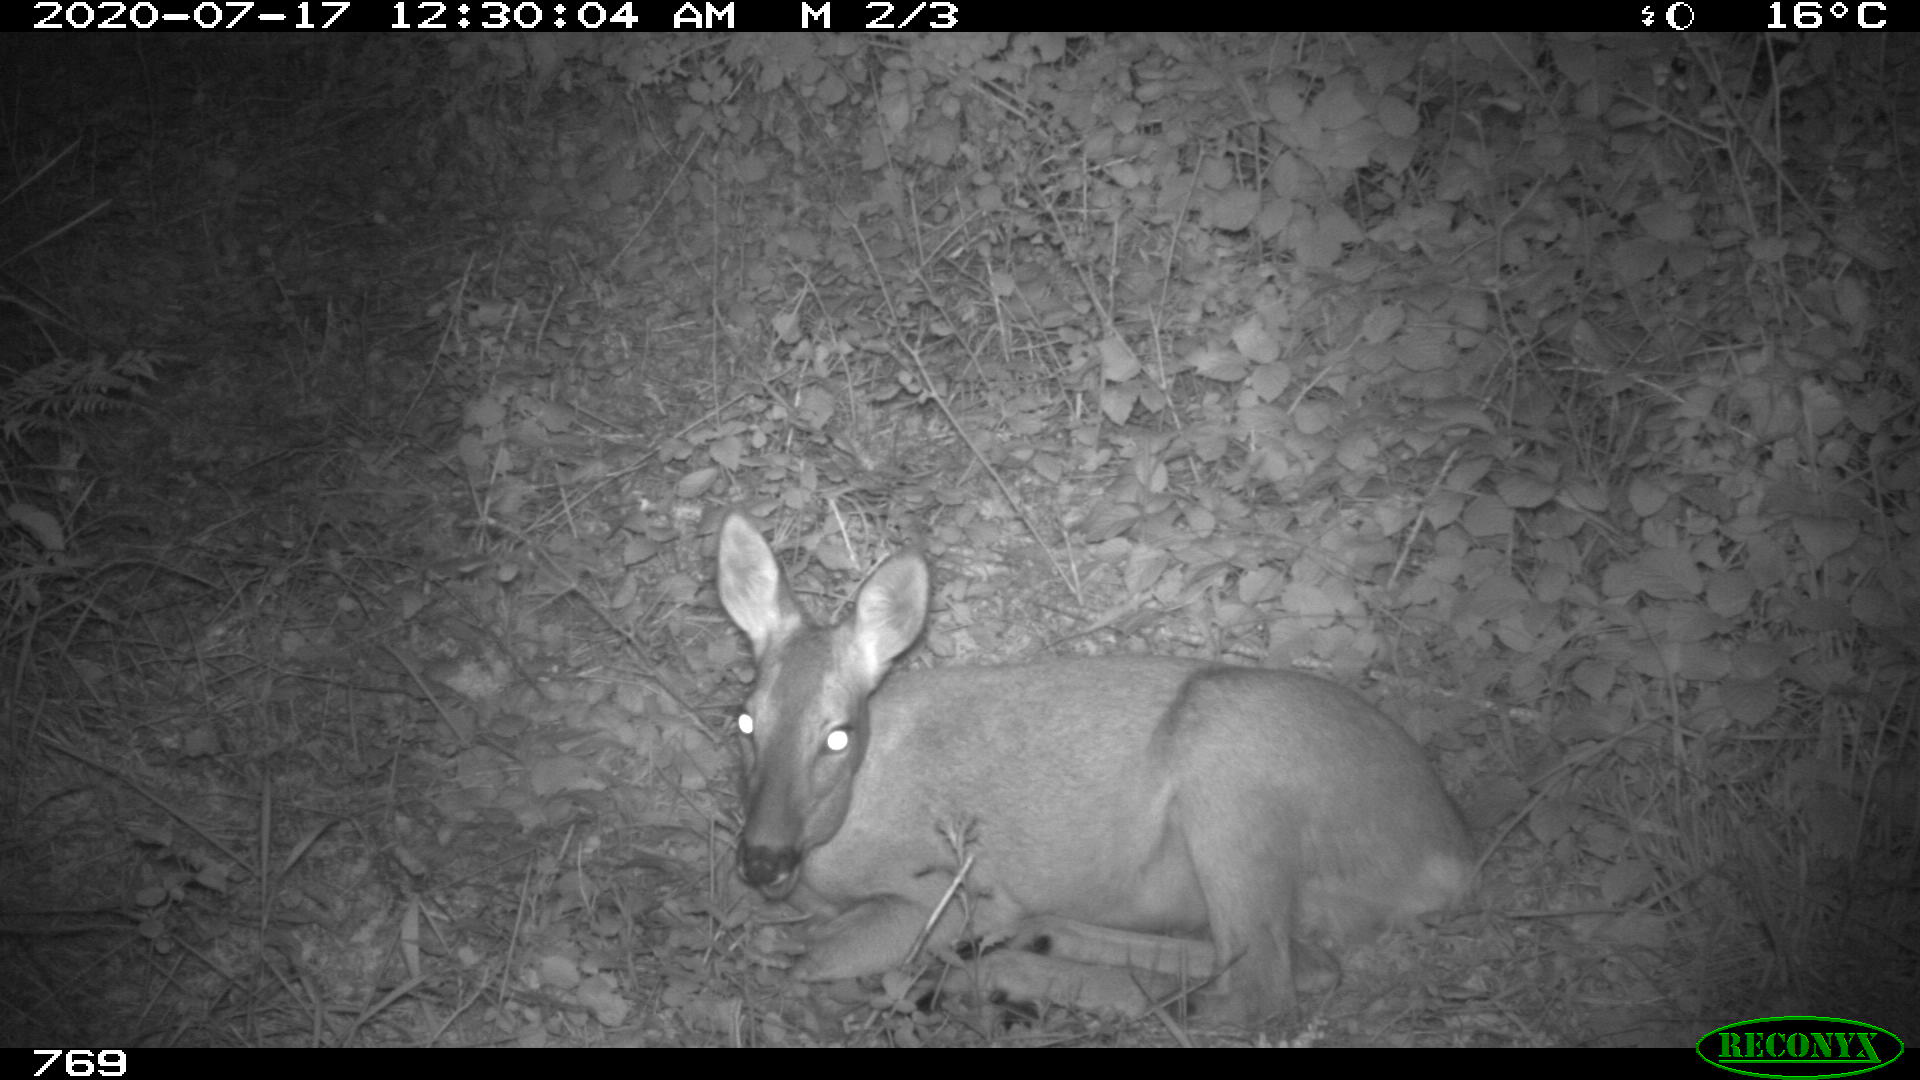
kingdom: Animalia
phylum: Chordata
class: Mammalia
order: Artiodactyla
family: Cervidae
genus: Capreolus
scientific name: Capreolus capreolus
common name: Western roe deer
